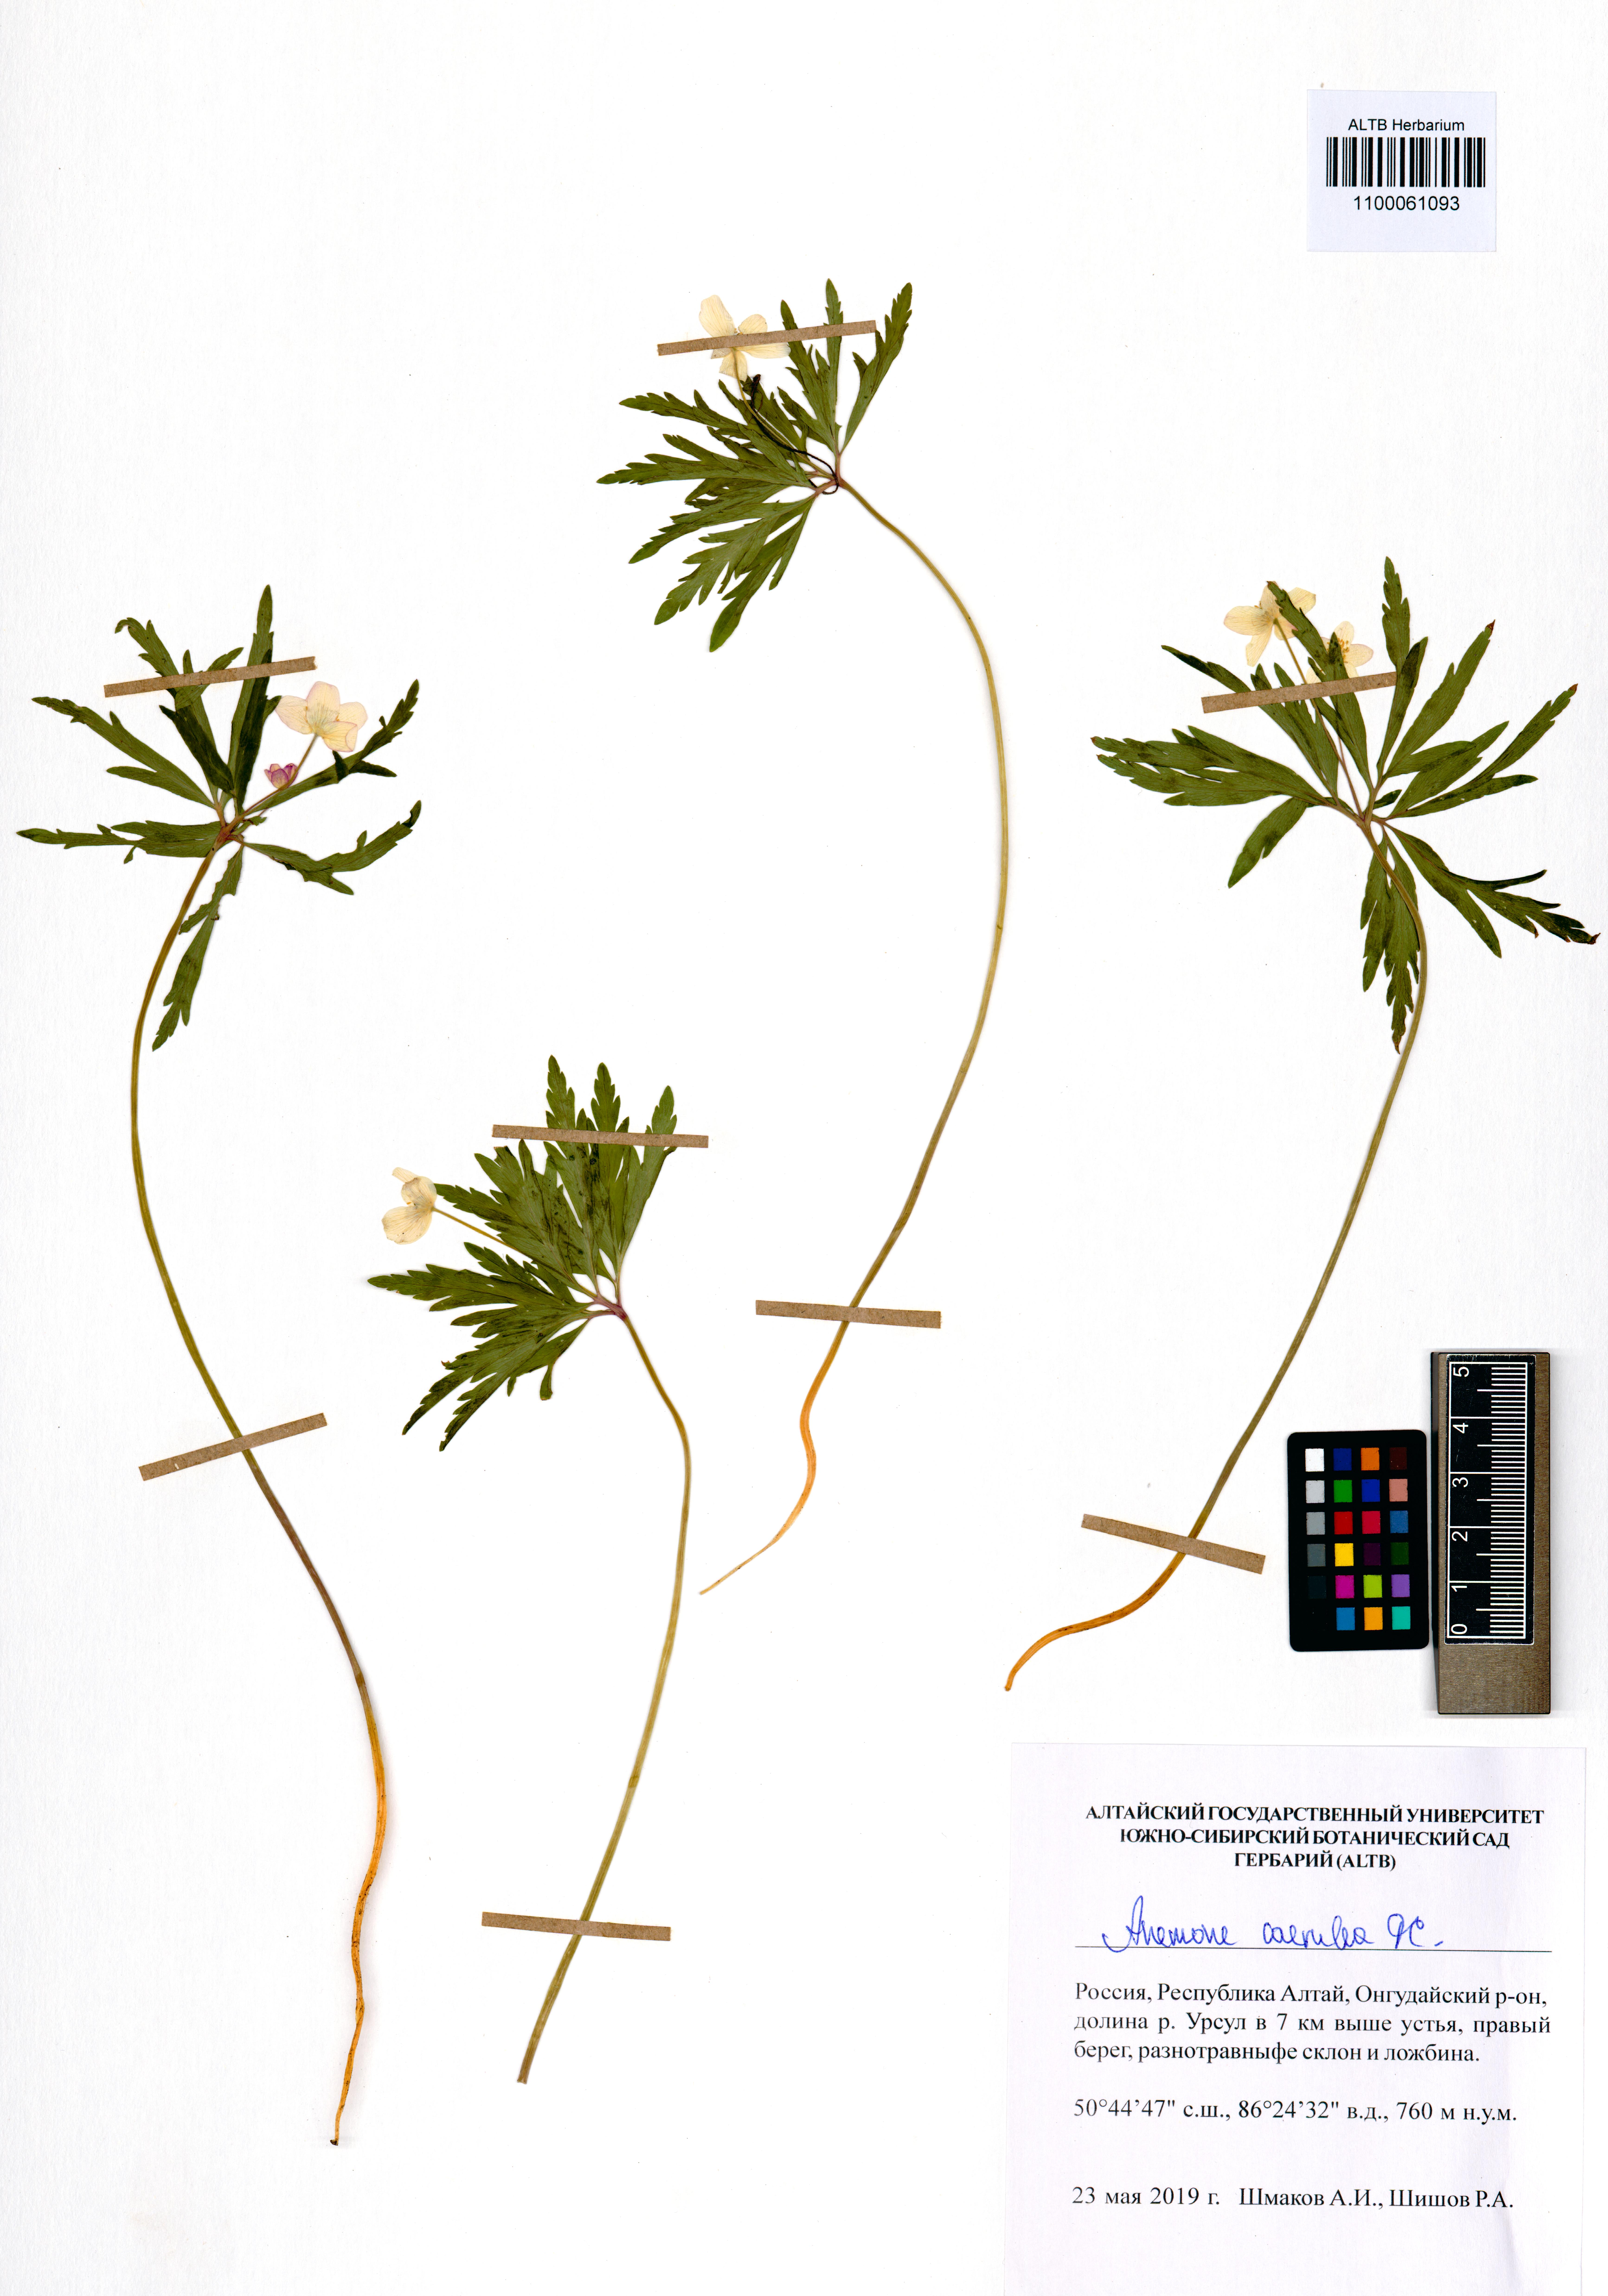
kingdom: Plantae
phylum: Tracheophyta
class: Magnoliopsida
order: Ranunculales
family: Ranunculaceae
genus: Anemone
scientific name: Anemone caerulea
